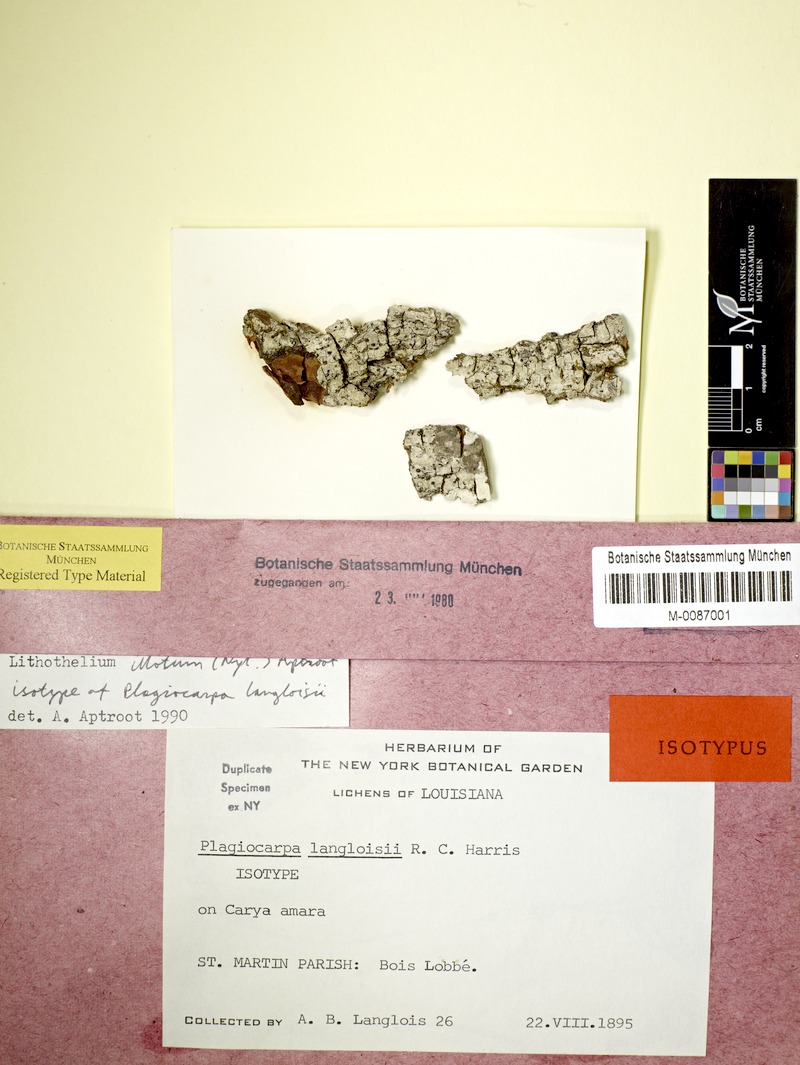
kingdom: Fungi
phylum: Ascomycota
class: Eurotiomycetes
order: Pyrenulales
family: Pyrenulaceae
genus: Lithothelium
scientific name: Lithothelium illotum
